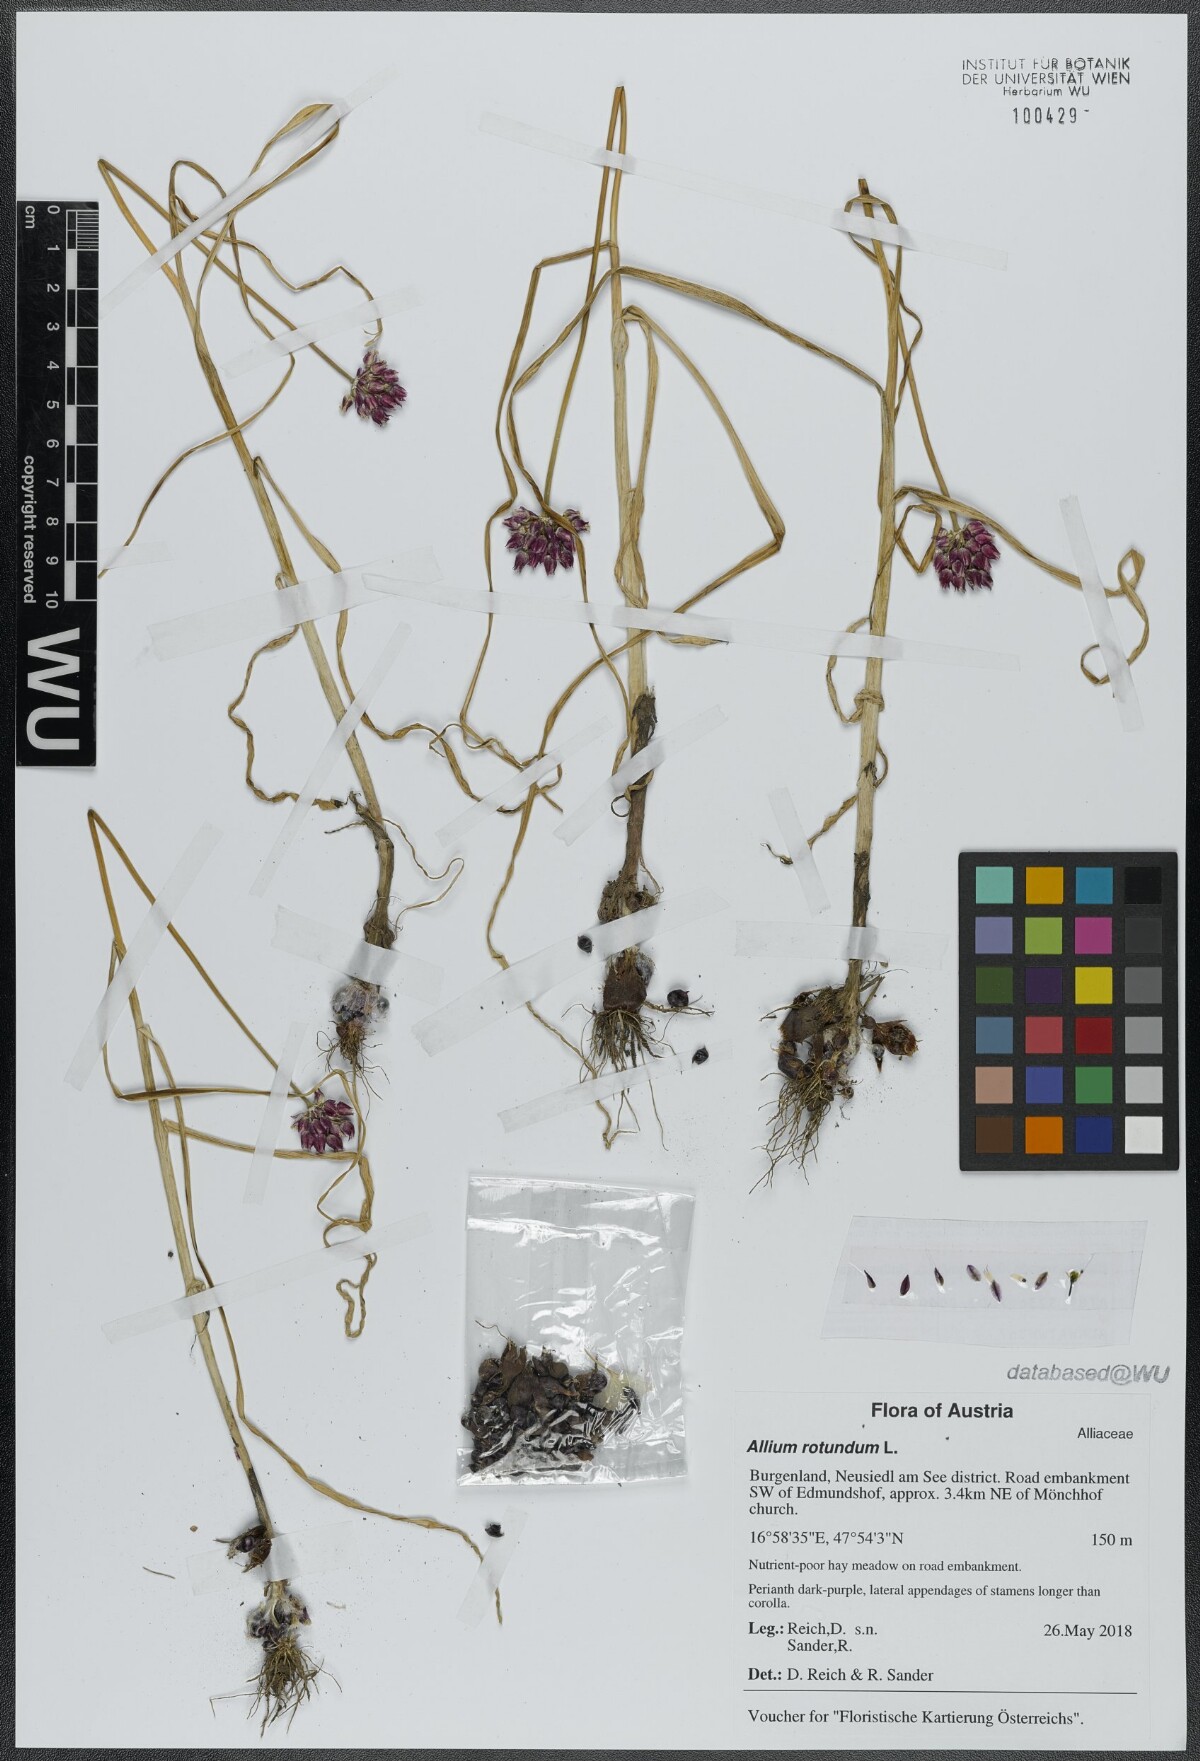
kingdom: Plantae
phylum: Tracheophyta
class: Liliopsida
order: Asparagales
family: Amaryllidaceae
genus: Allium
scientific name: Allium rotundum
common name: Sand leek
